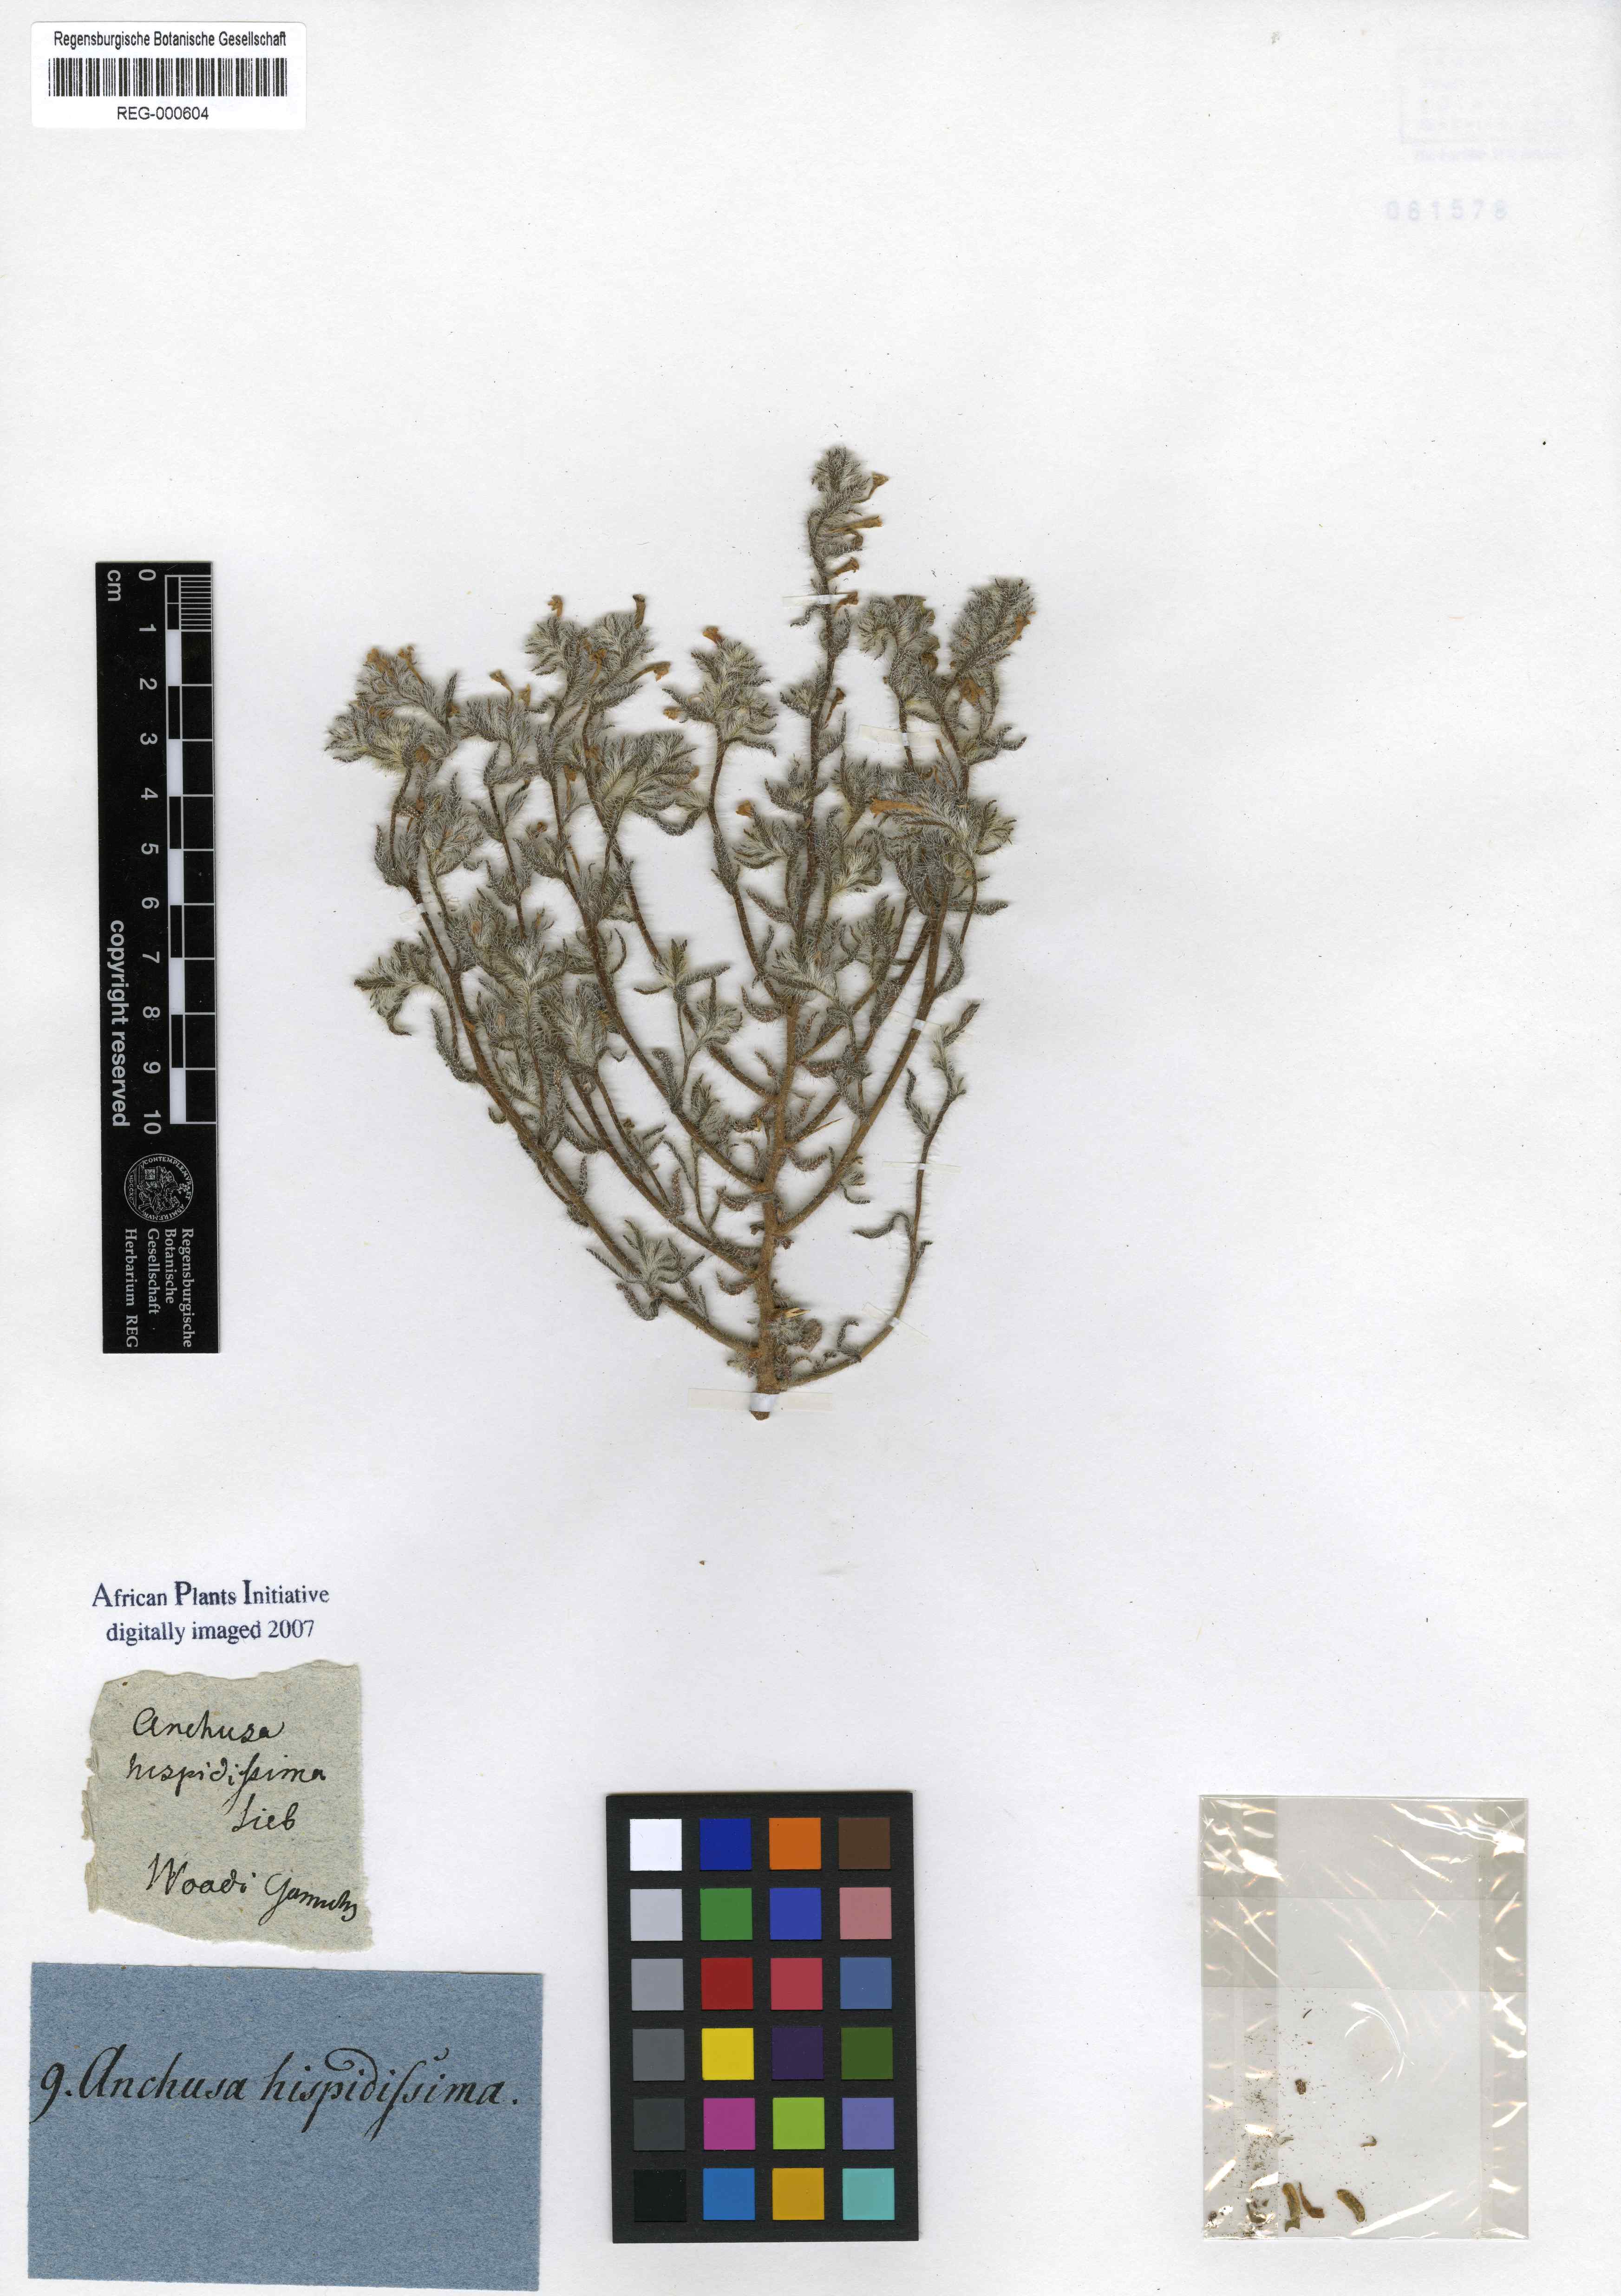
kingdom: Plantae
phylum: Tracheophyta
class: Magnoliopsida
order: Boraginales
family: Boraginaceae
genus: Arnebia
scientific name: Arnebia hispidissima
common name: Arabian-primrose
